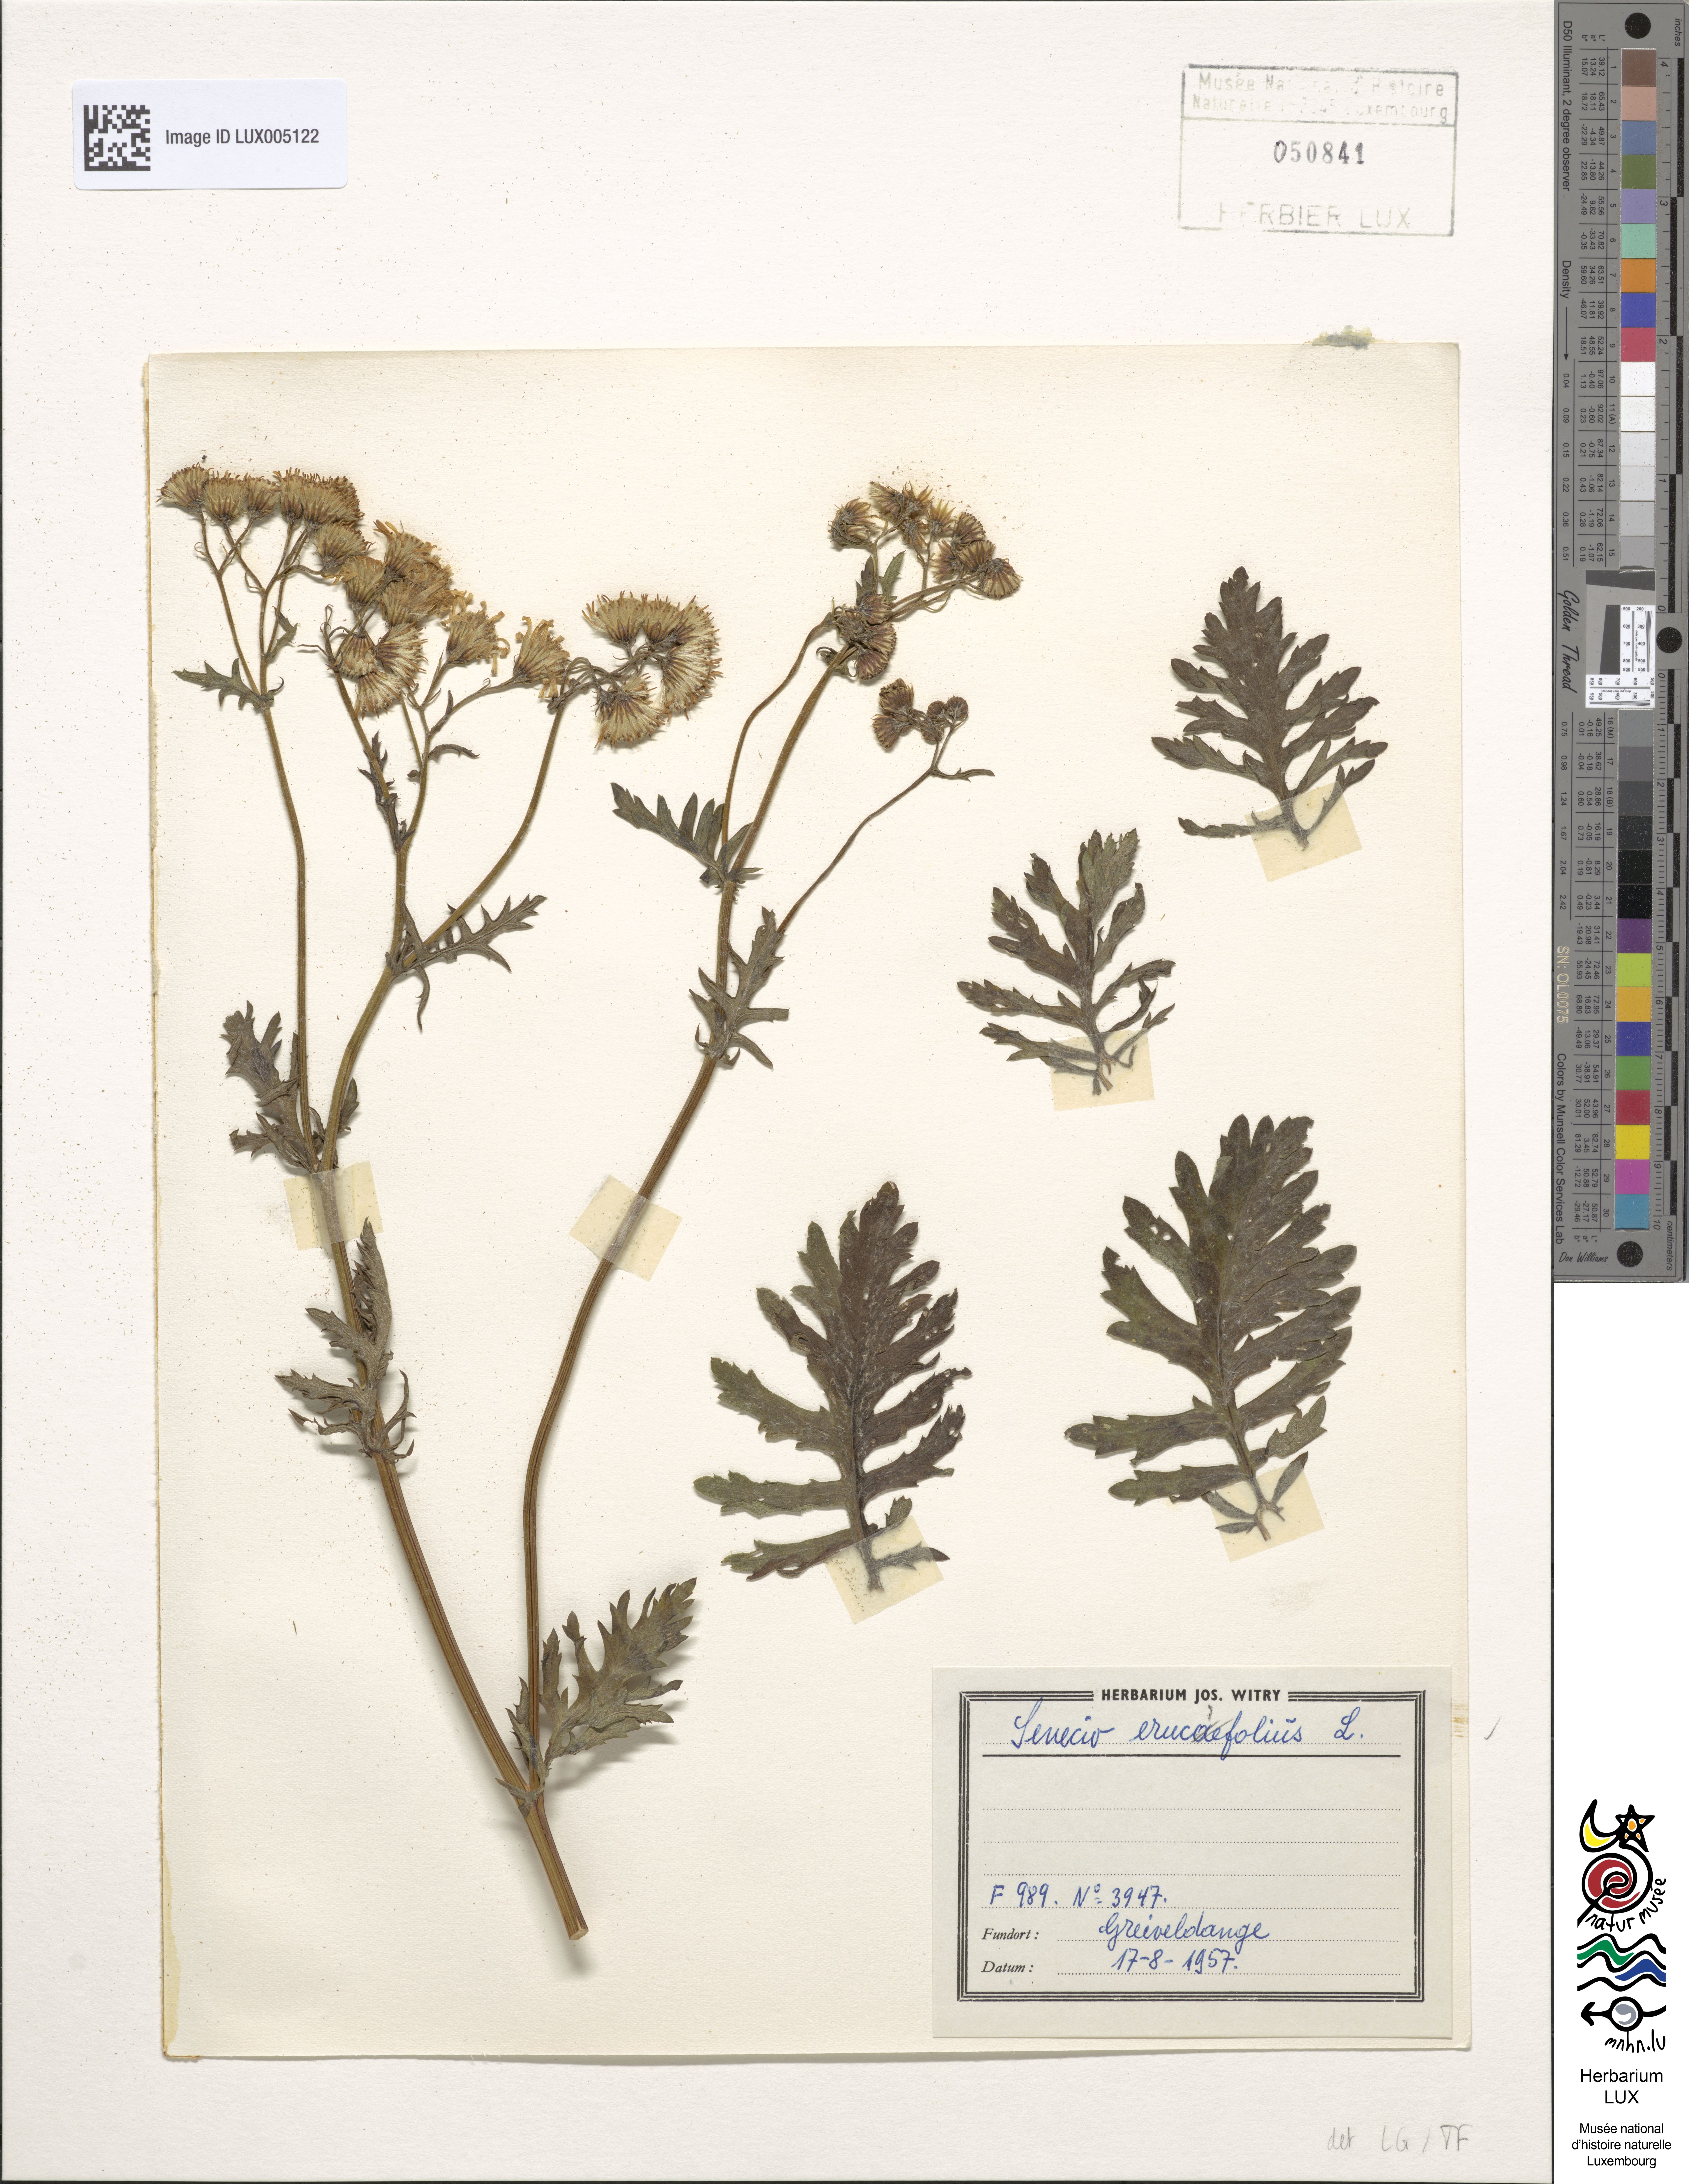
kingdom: Plantae
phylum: Tracheophyta
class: Magnoliopsida
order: Asterales
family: Asteraceae
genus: Jacobaea
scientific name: Jacobaea erucifolia
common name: Hoary ragwort
